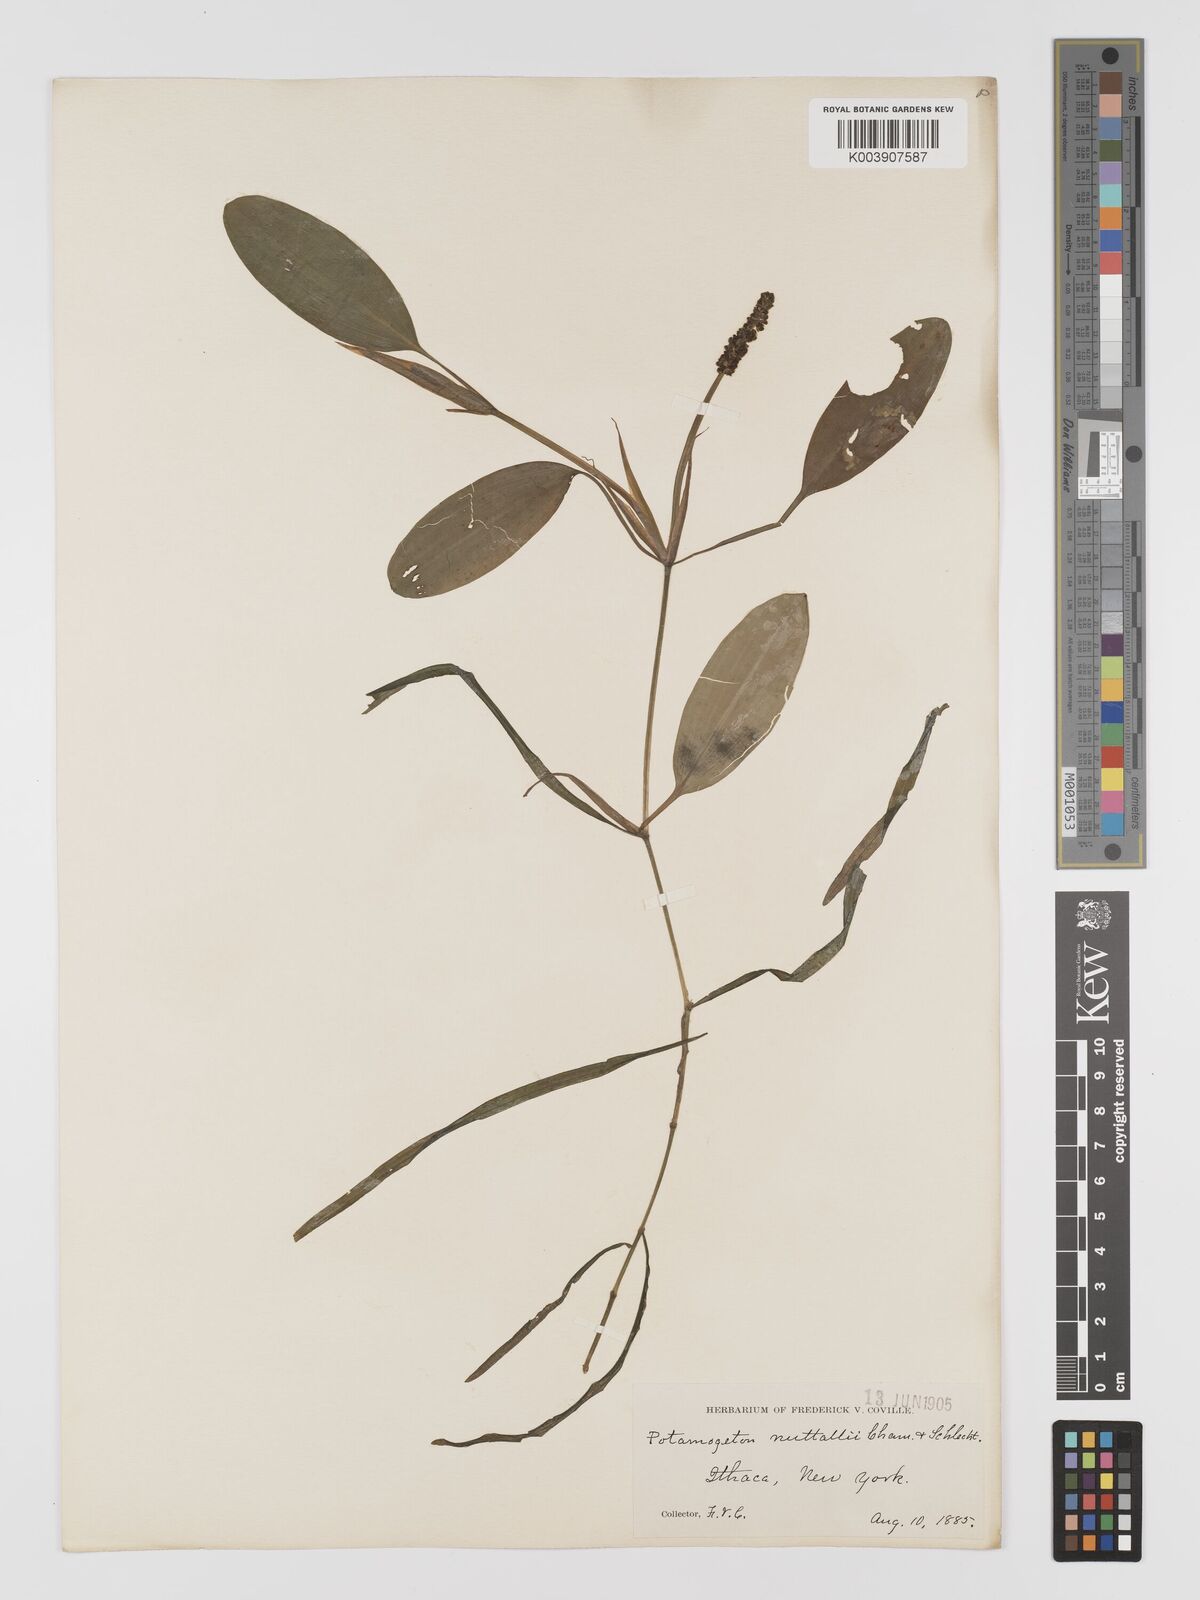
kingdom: Plantae
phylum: Tracheophyta
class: Liliopsida
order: Alismatales
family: Potamogetonaceae
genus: Potamogeton
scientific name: Potamogeton epihydrus
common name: American pondweed
